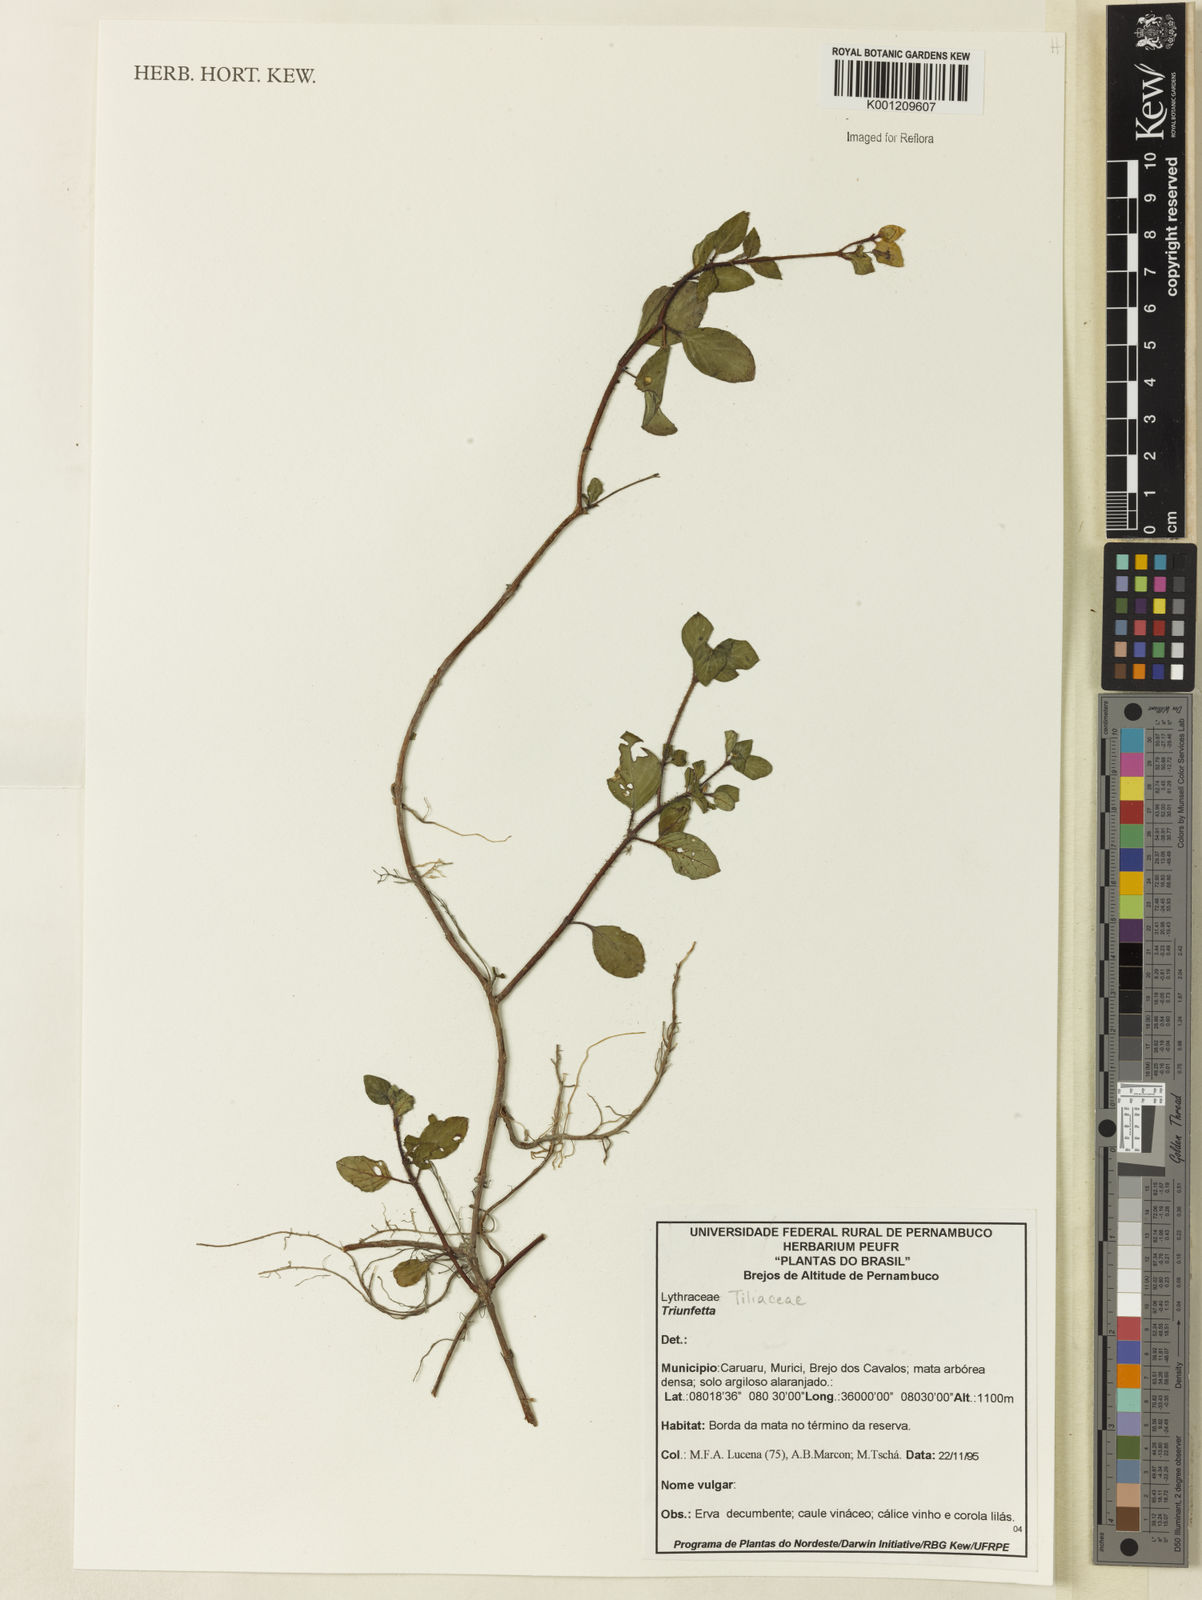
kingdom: Plantae
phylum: Tracheophyta
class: Magnoliopsida
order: Malvales
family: Malvaceae
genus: Triumfetta
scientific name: Triumfetta
